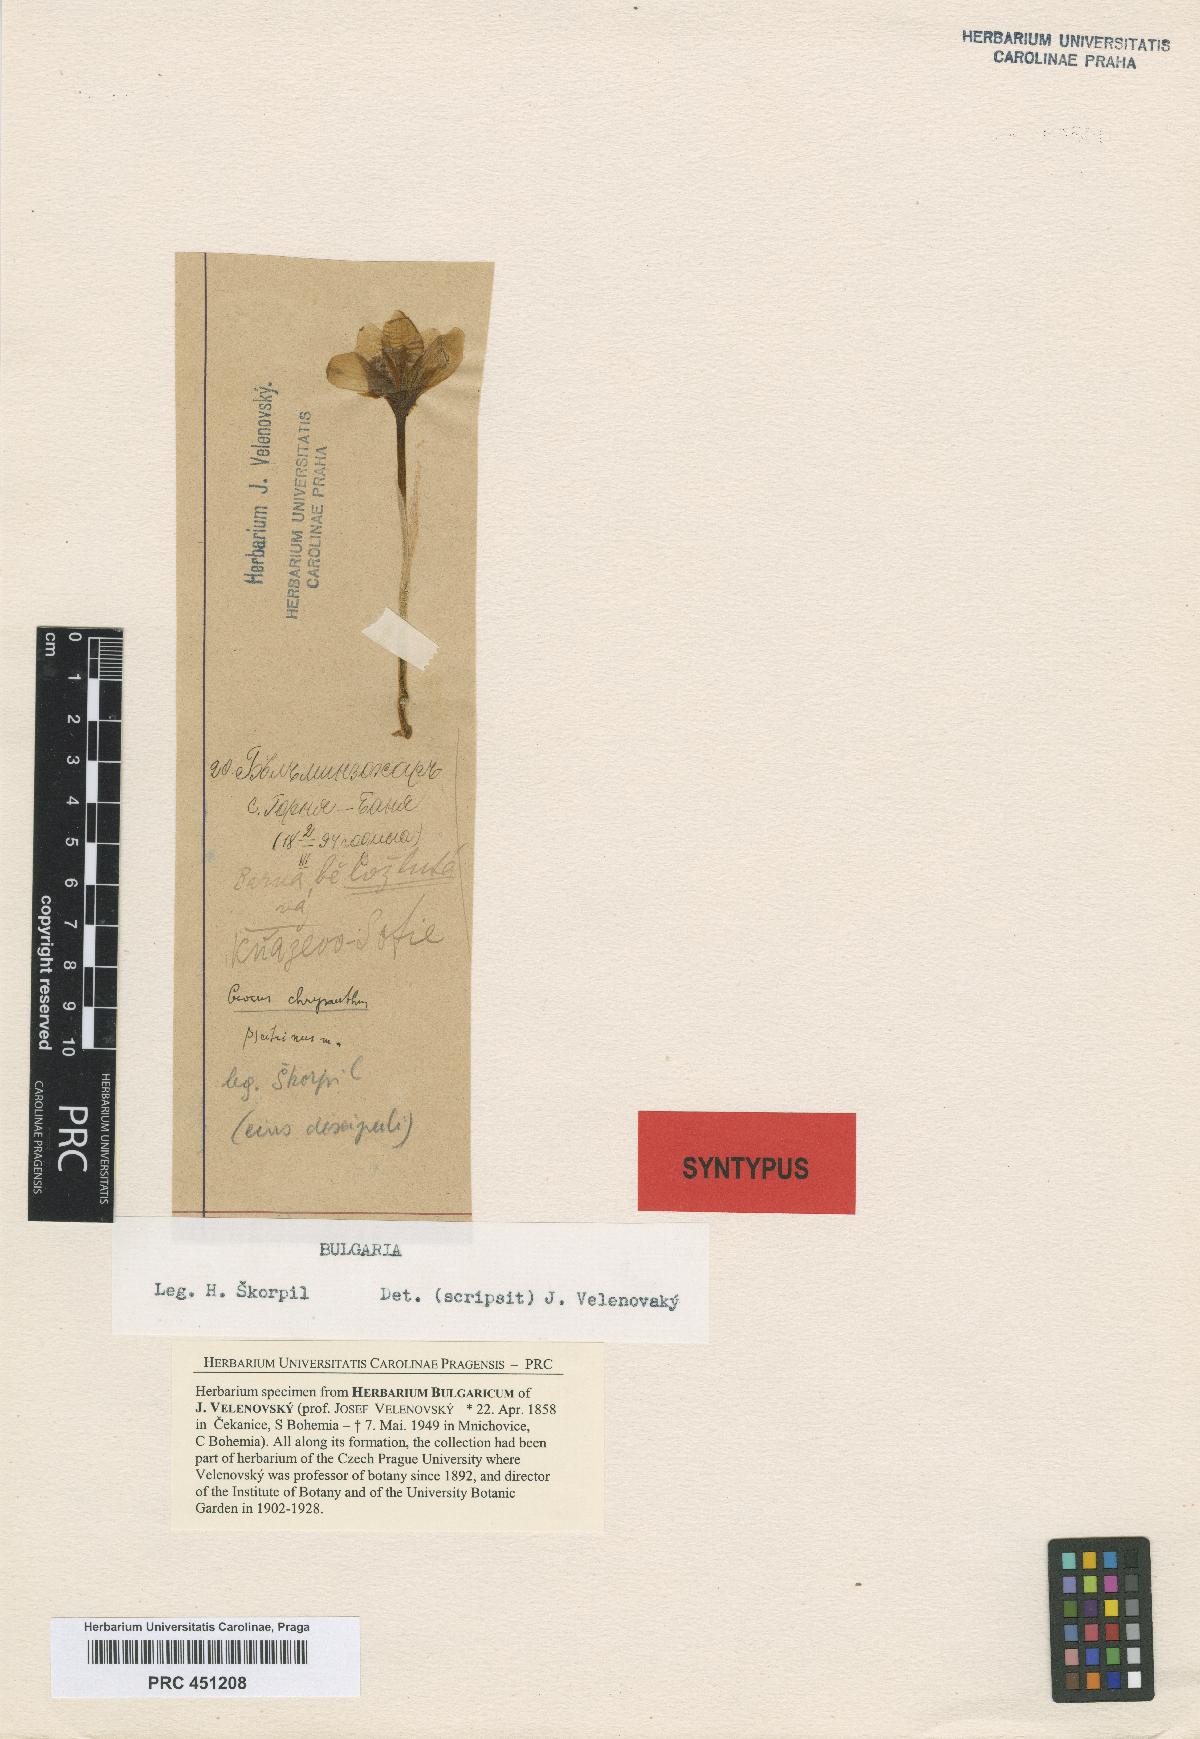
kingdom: Plantae
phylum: Tracheophyta
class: Liliopsida
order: Asparagales
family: Iridaceae
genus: Crocus
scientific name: Crocus chrysanthus
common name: Golden crocus
